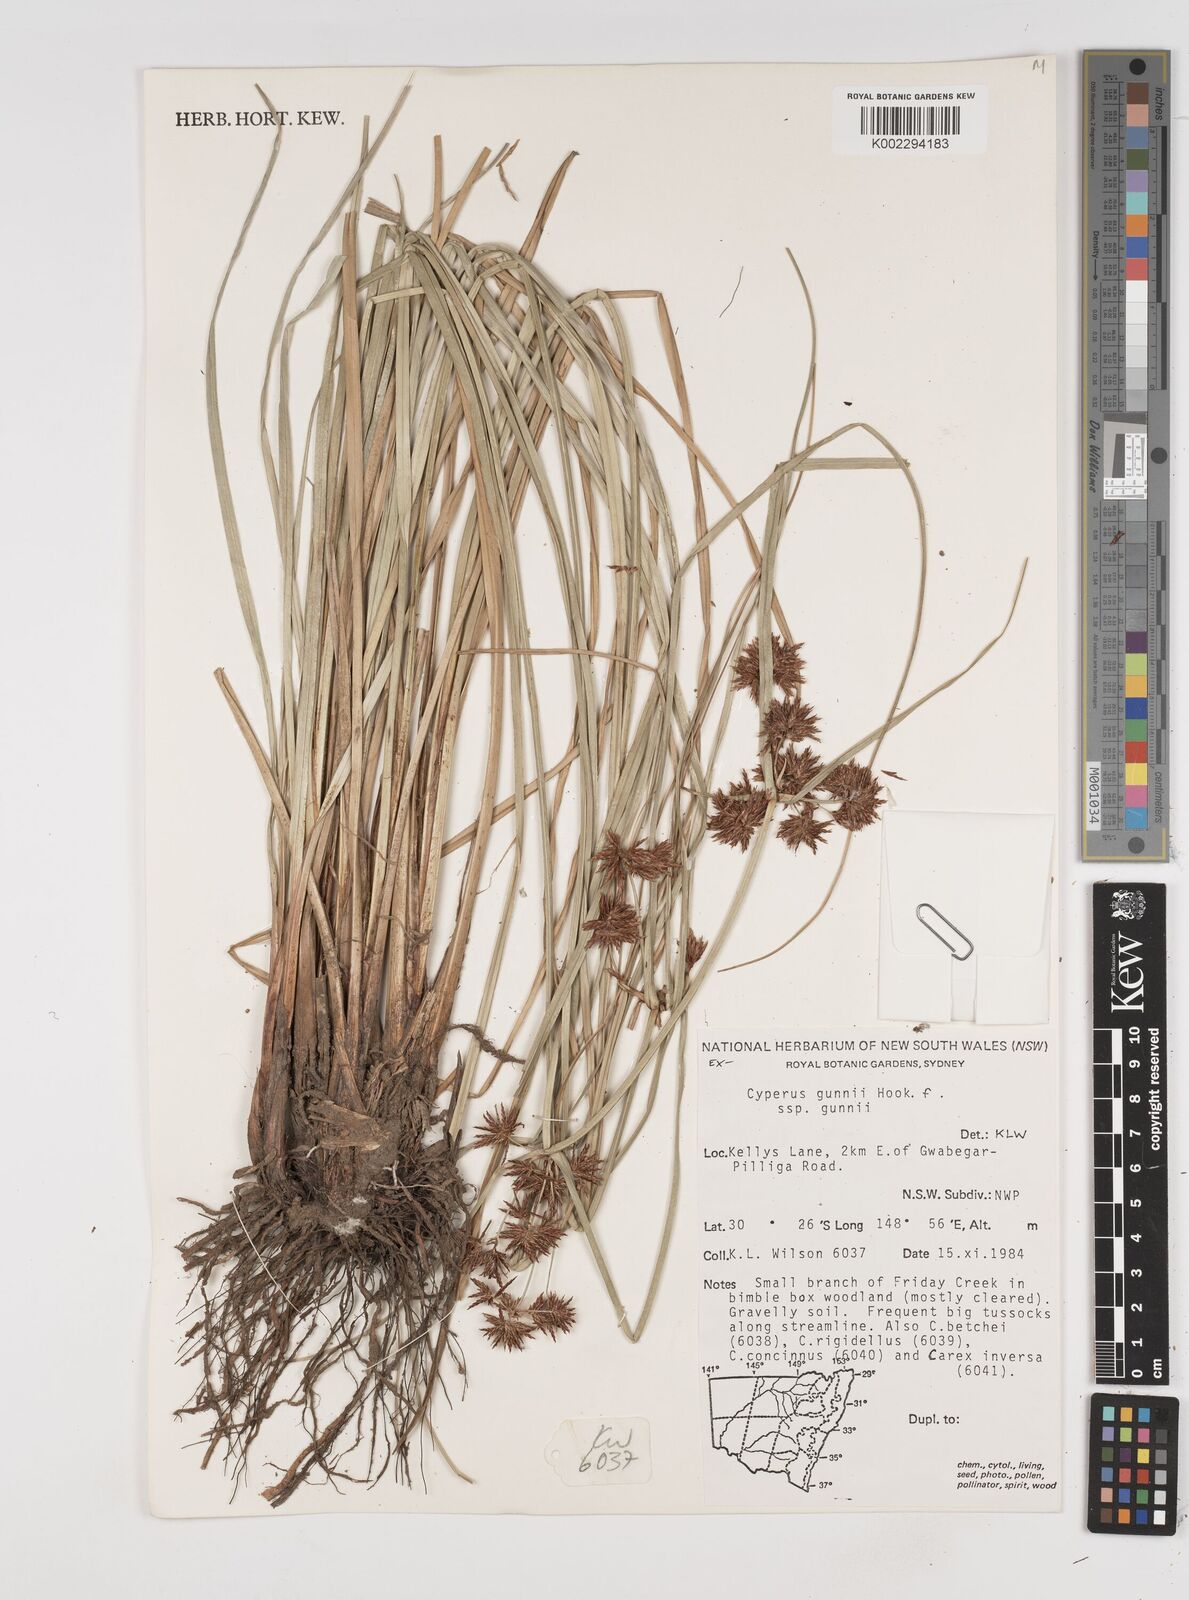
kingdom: Plantae
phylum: Tracheophyta
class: Liliopsida
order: Poales
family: Cyperaceae
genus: Cyperus
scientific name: Cyperus gunnii
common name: Flecked flat-sedge
